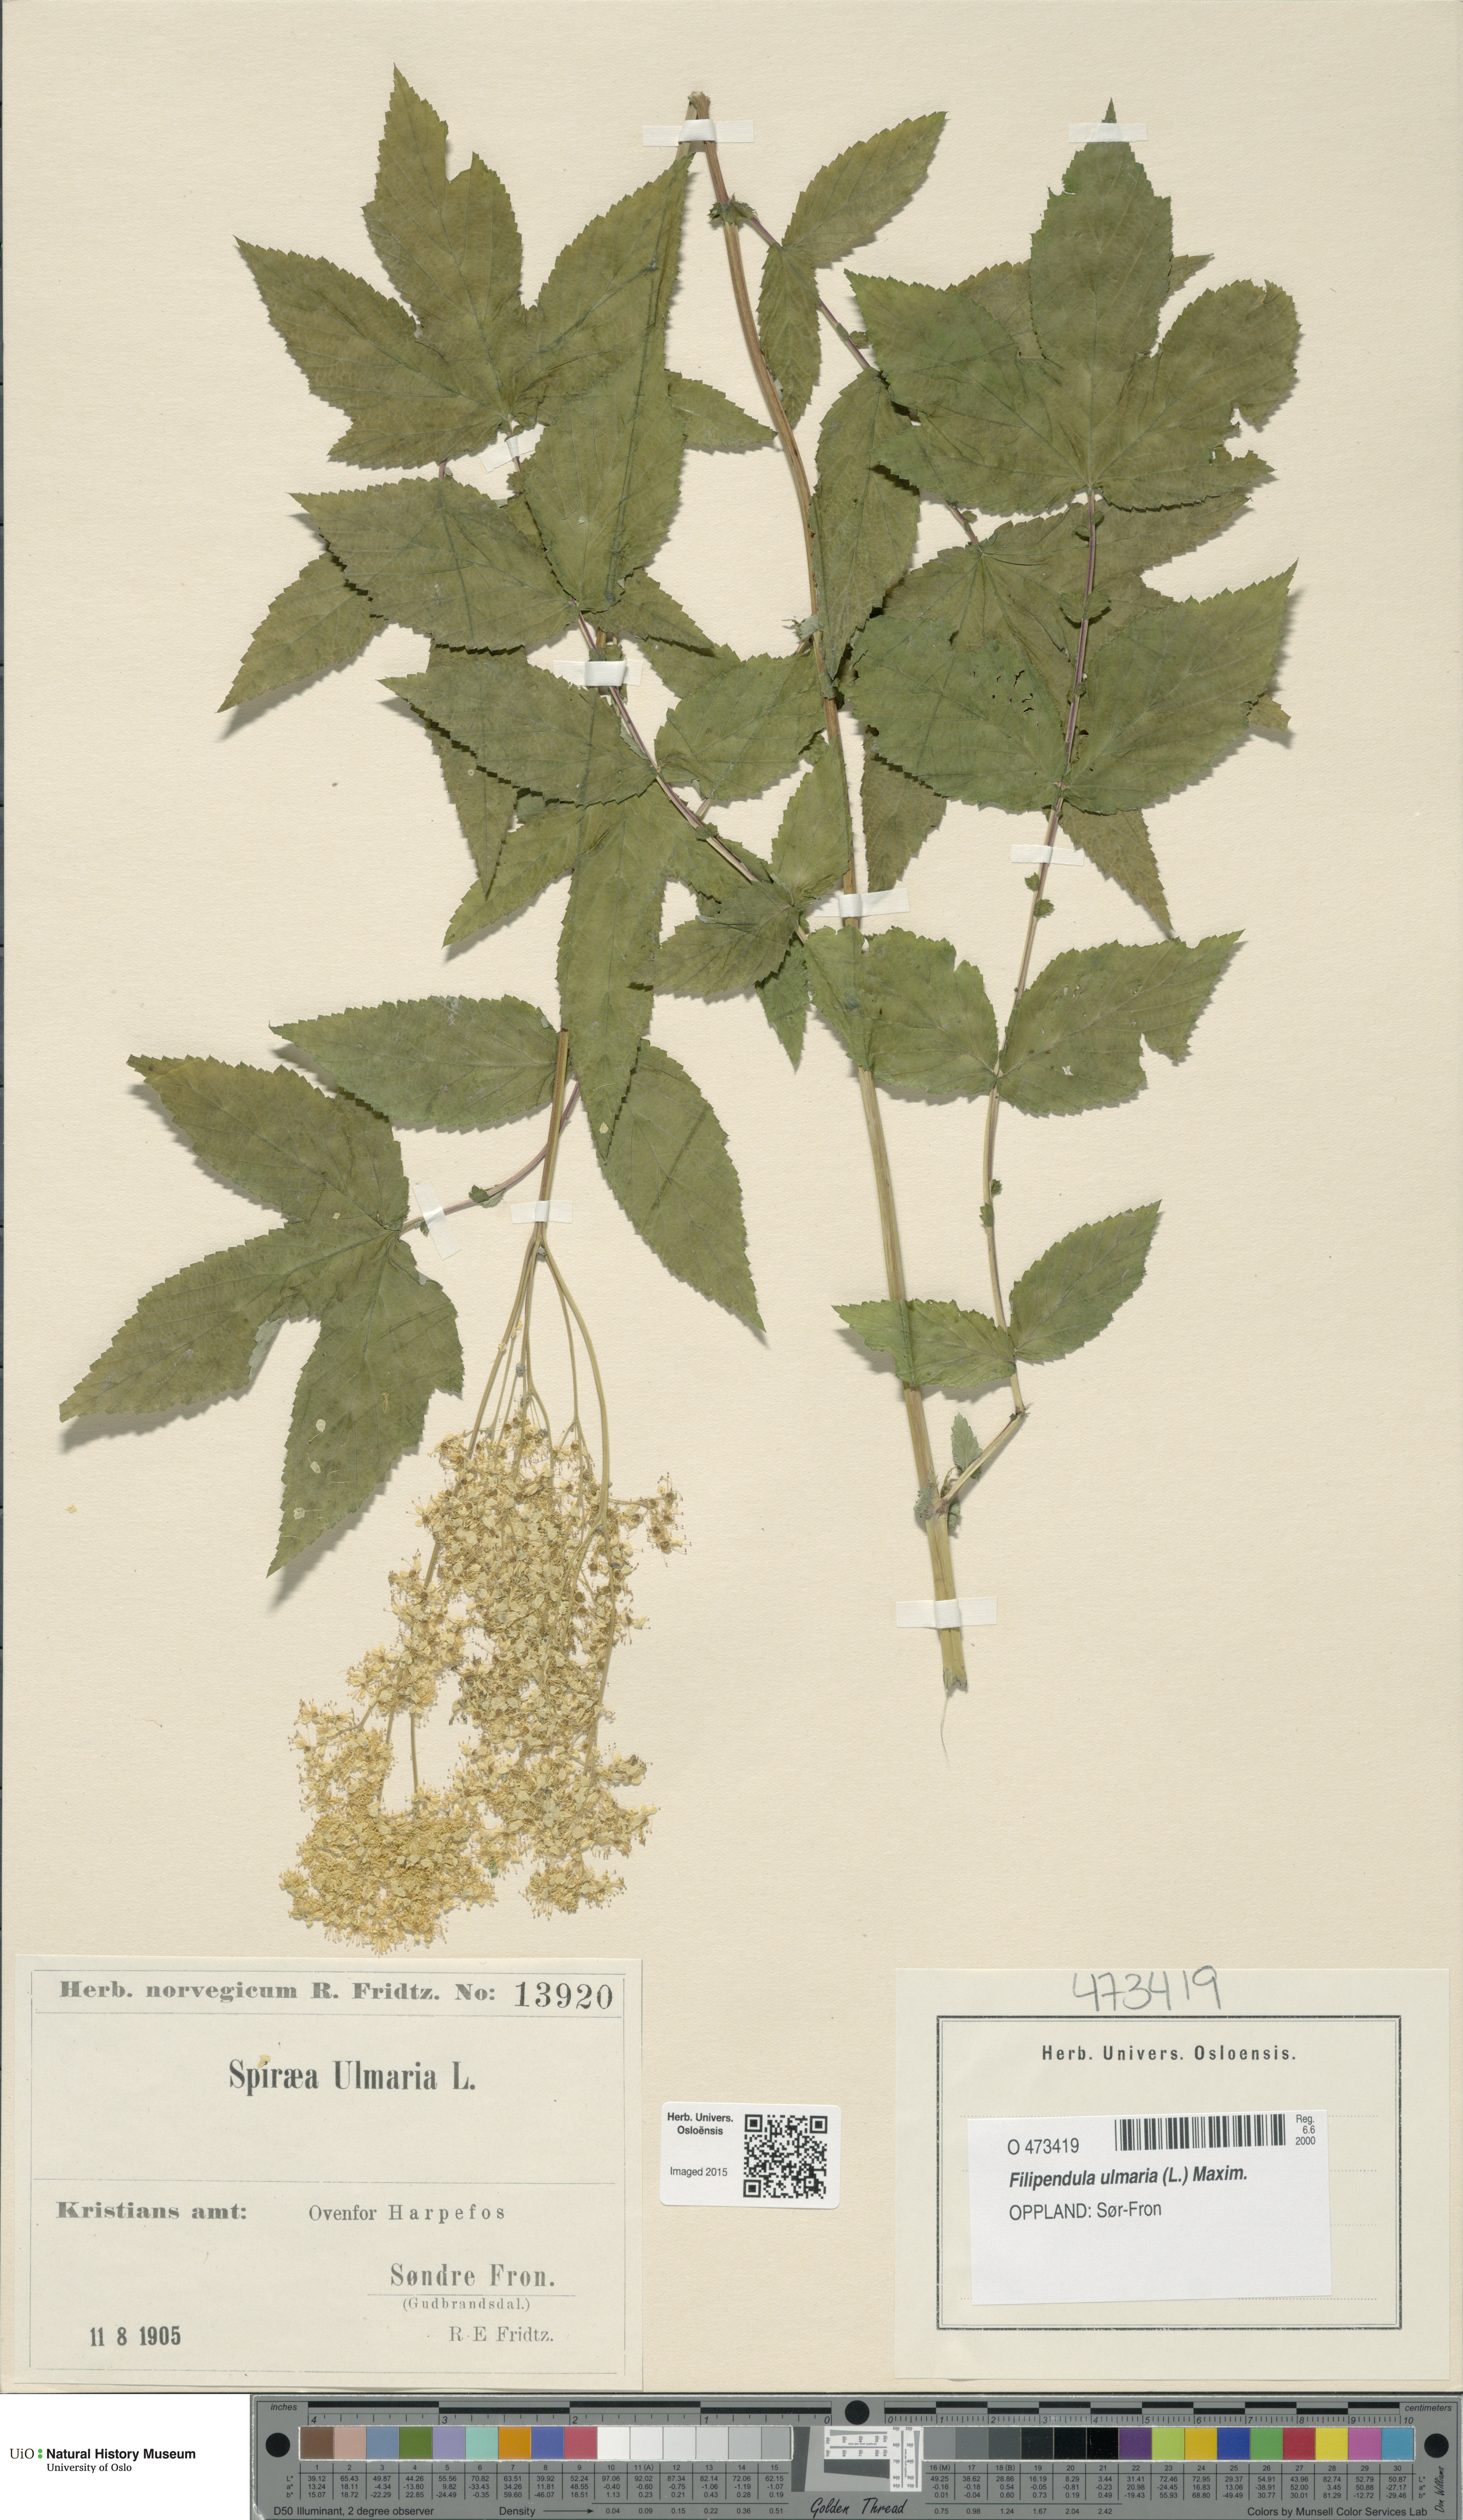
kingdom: Plantae
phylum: Tracheophyta
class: Magnoliopsida
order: Rosales
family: Rosaceae
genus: Filipendula
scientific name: Filipendula ulmaria
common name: Meadowsweet
